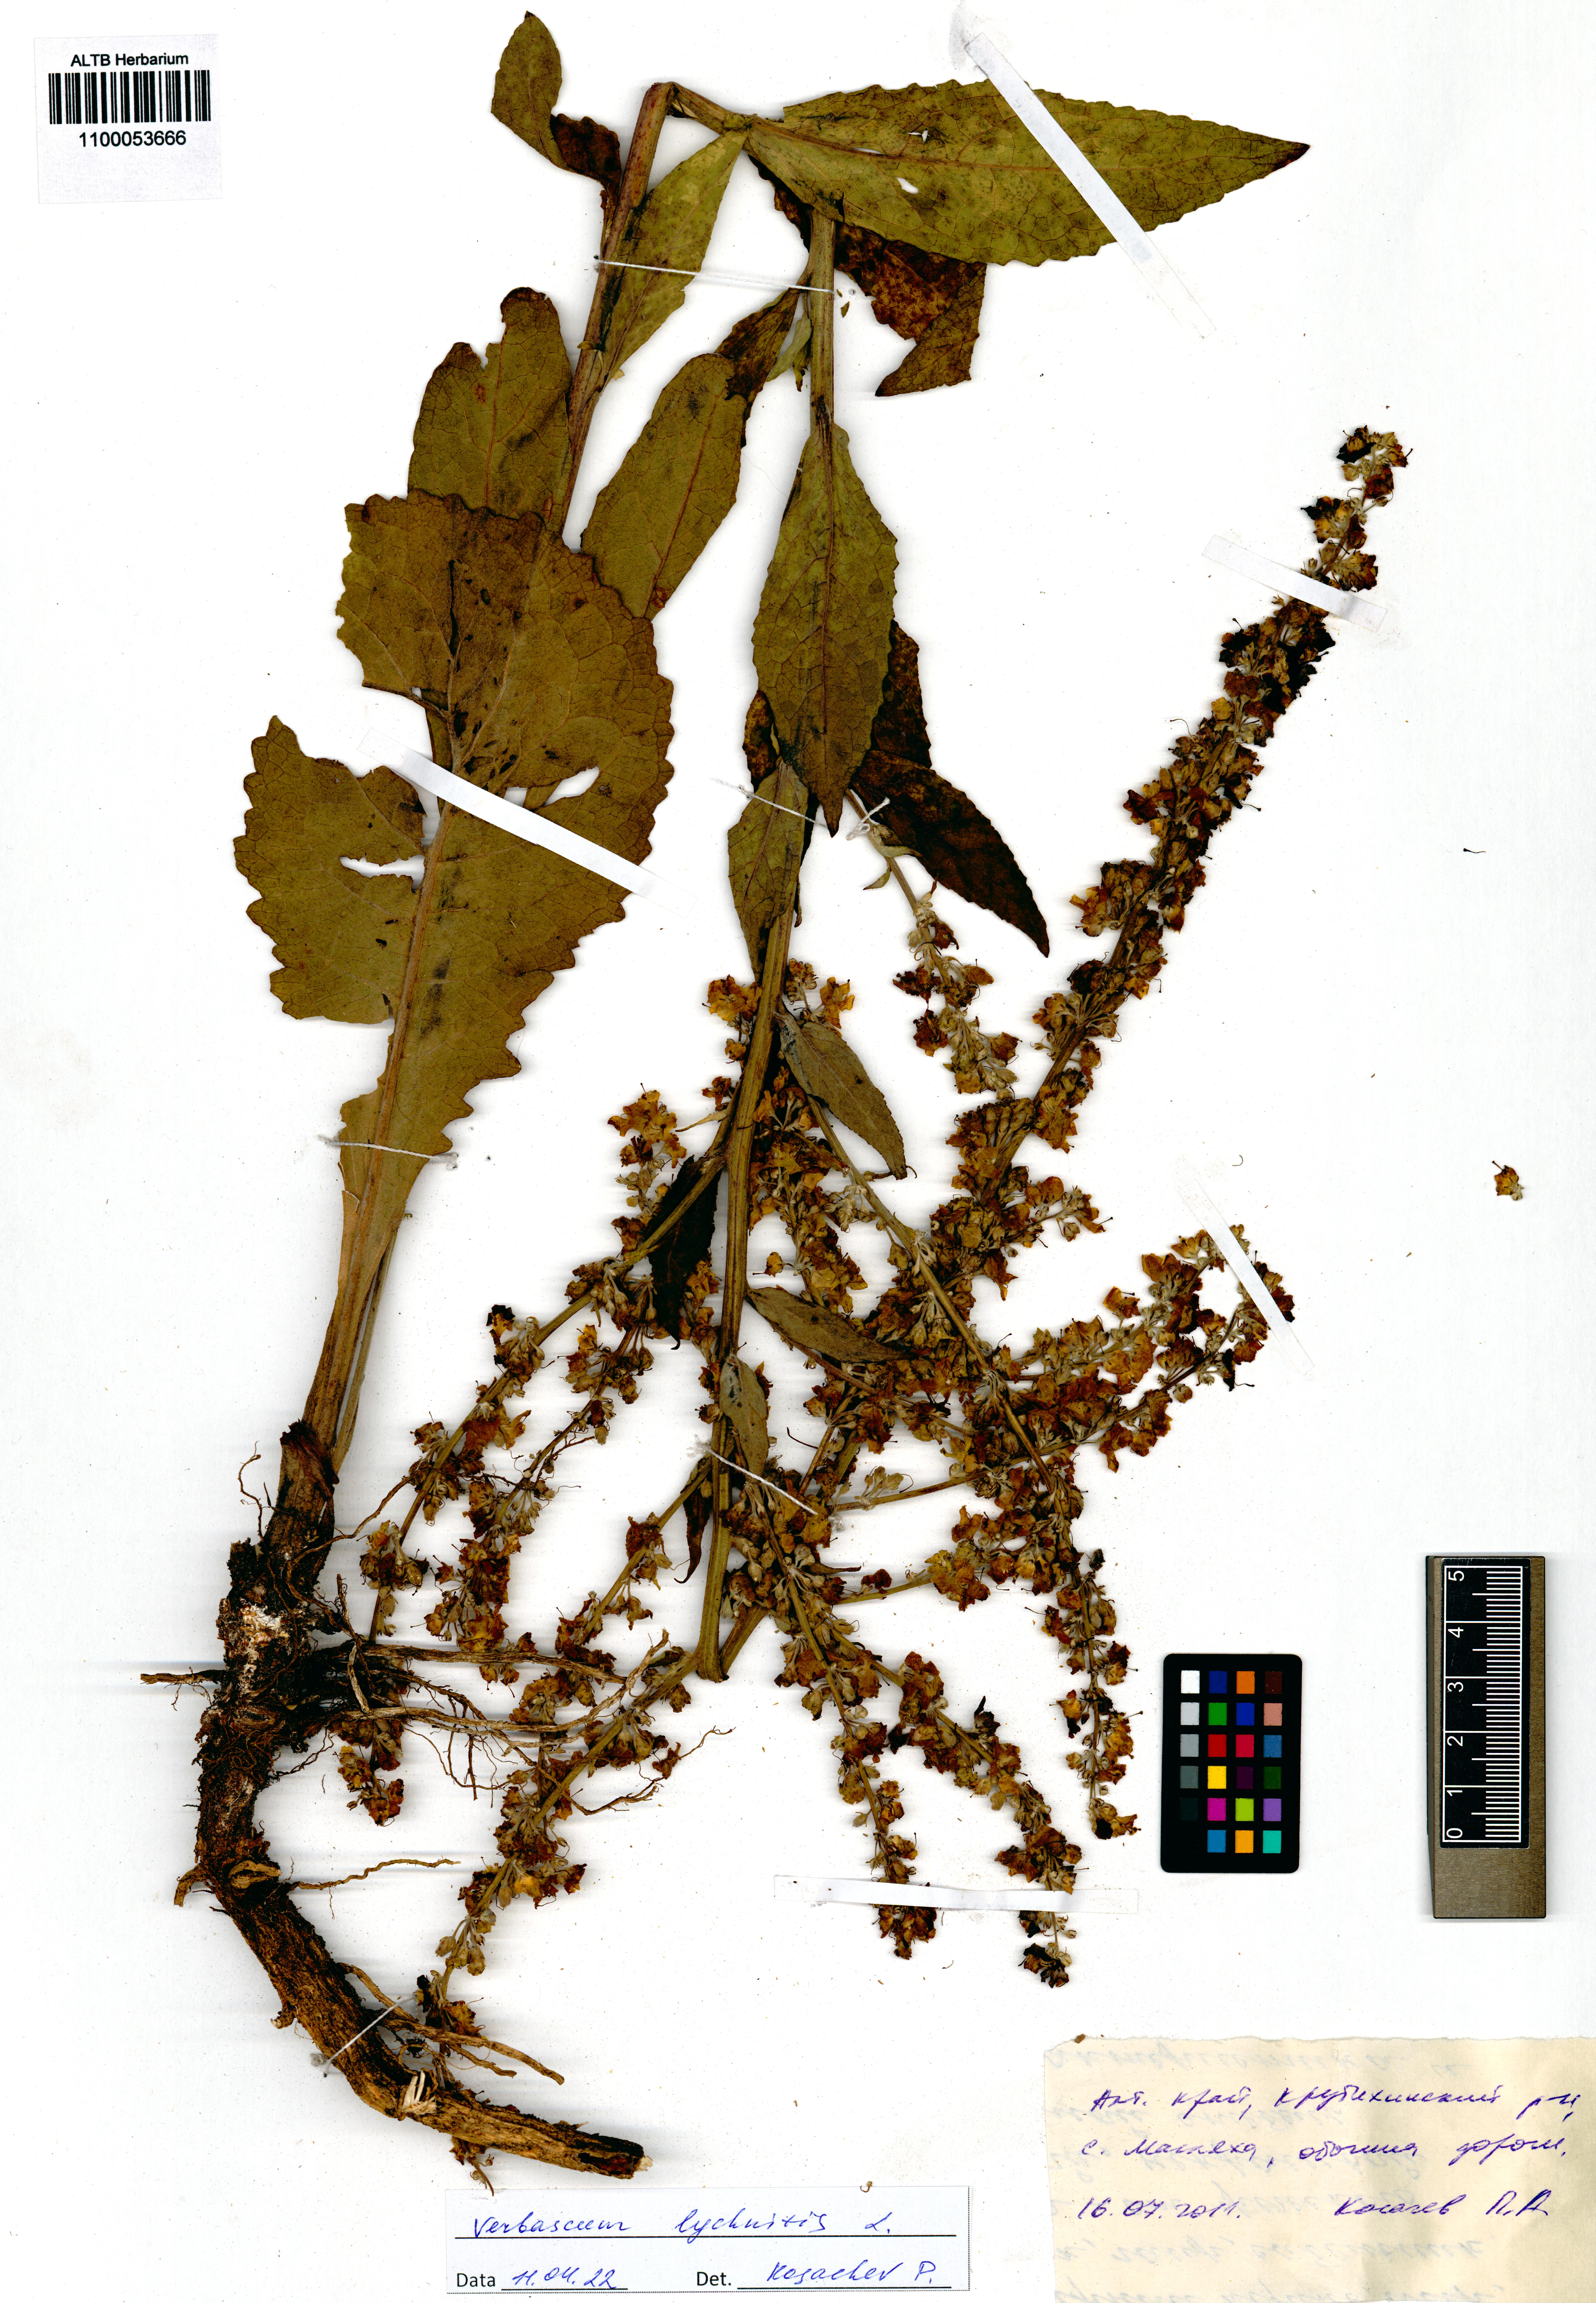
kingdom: Plantae
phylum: Tracheophyta
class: Magnoliopsida
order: Lamiales
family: Scrophulariaceae
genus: Verbascum
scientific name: Verbascum lychnitis
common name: White mullein
